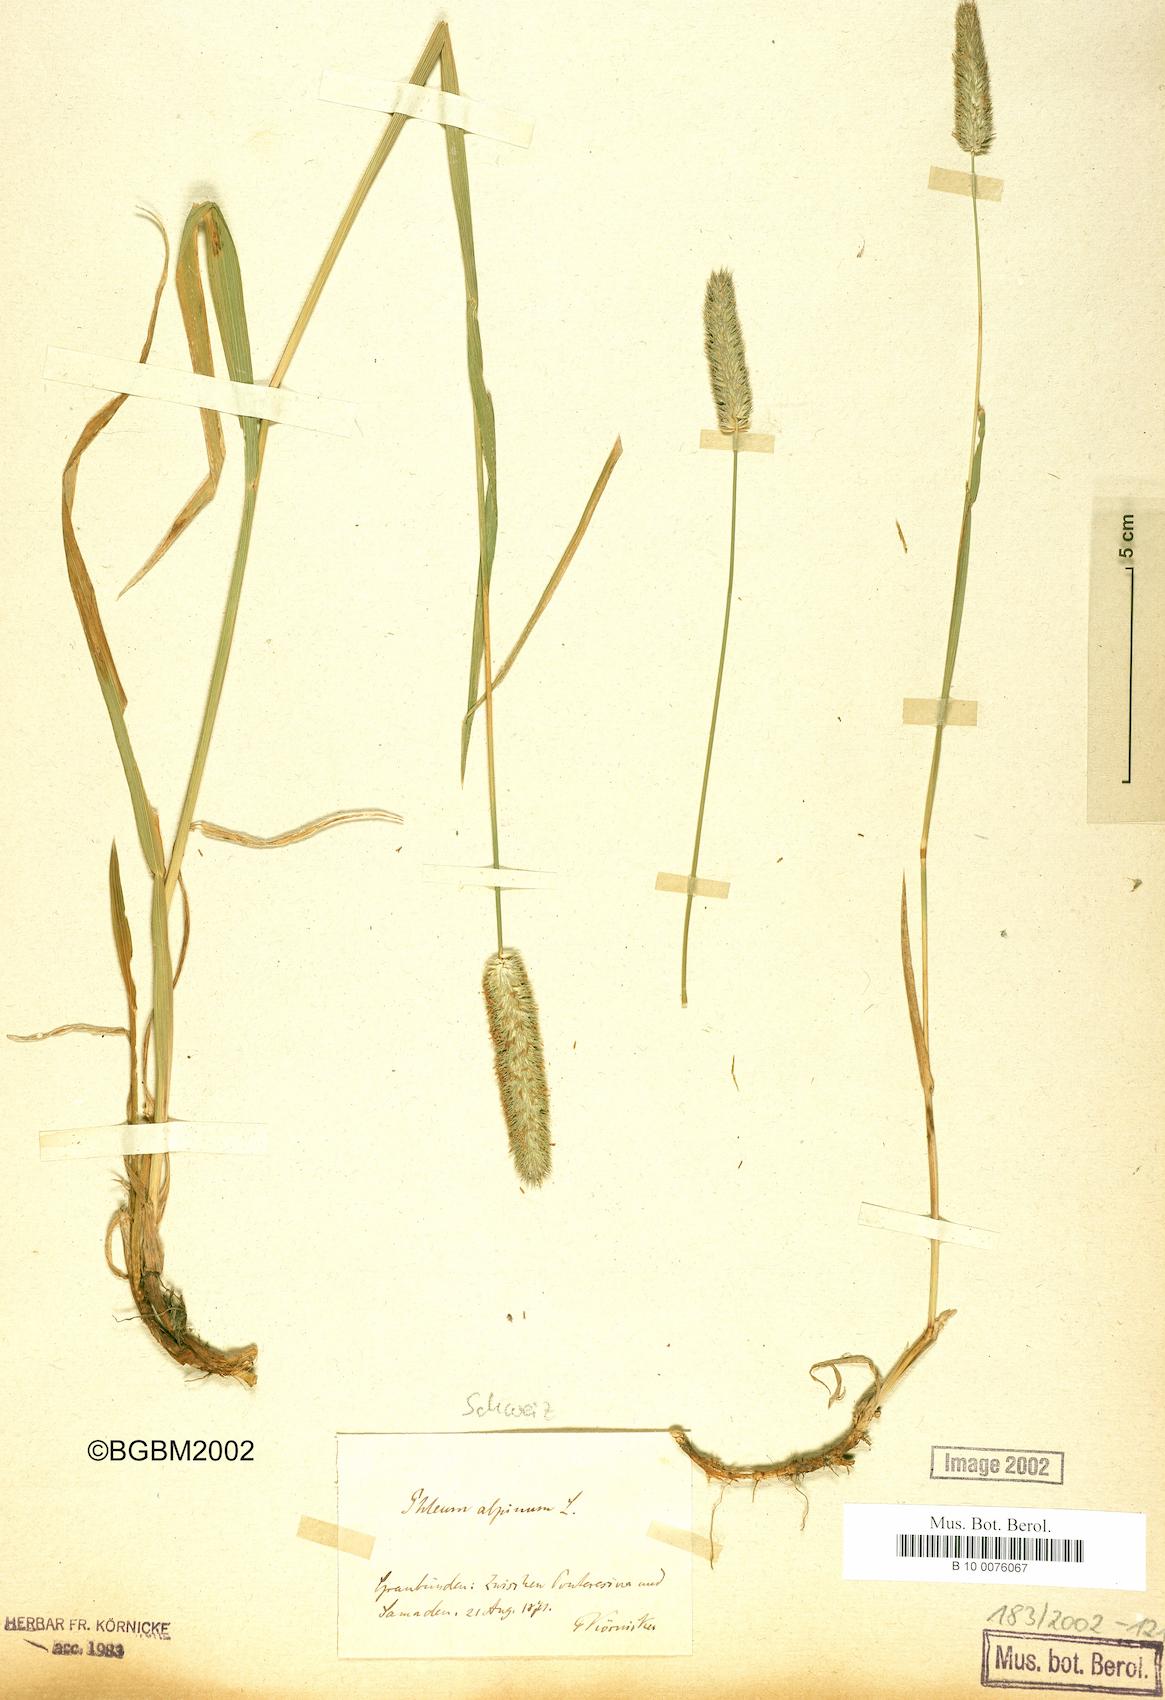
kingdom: Plantae
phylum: Tracheophyta
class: Liliopsida
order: Poales
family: Poaceae
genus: Phleum
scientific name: Phleum alpinum
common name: Alpine cat's-tail
